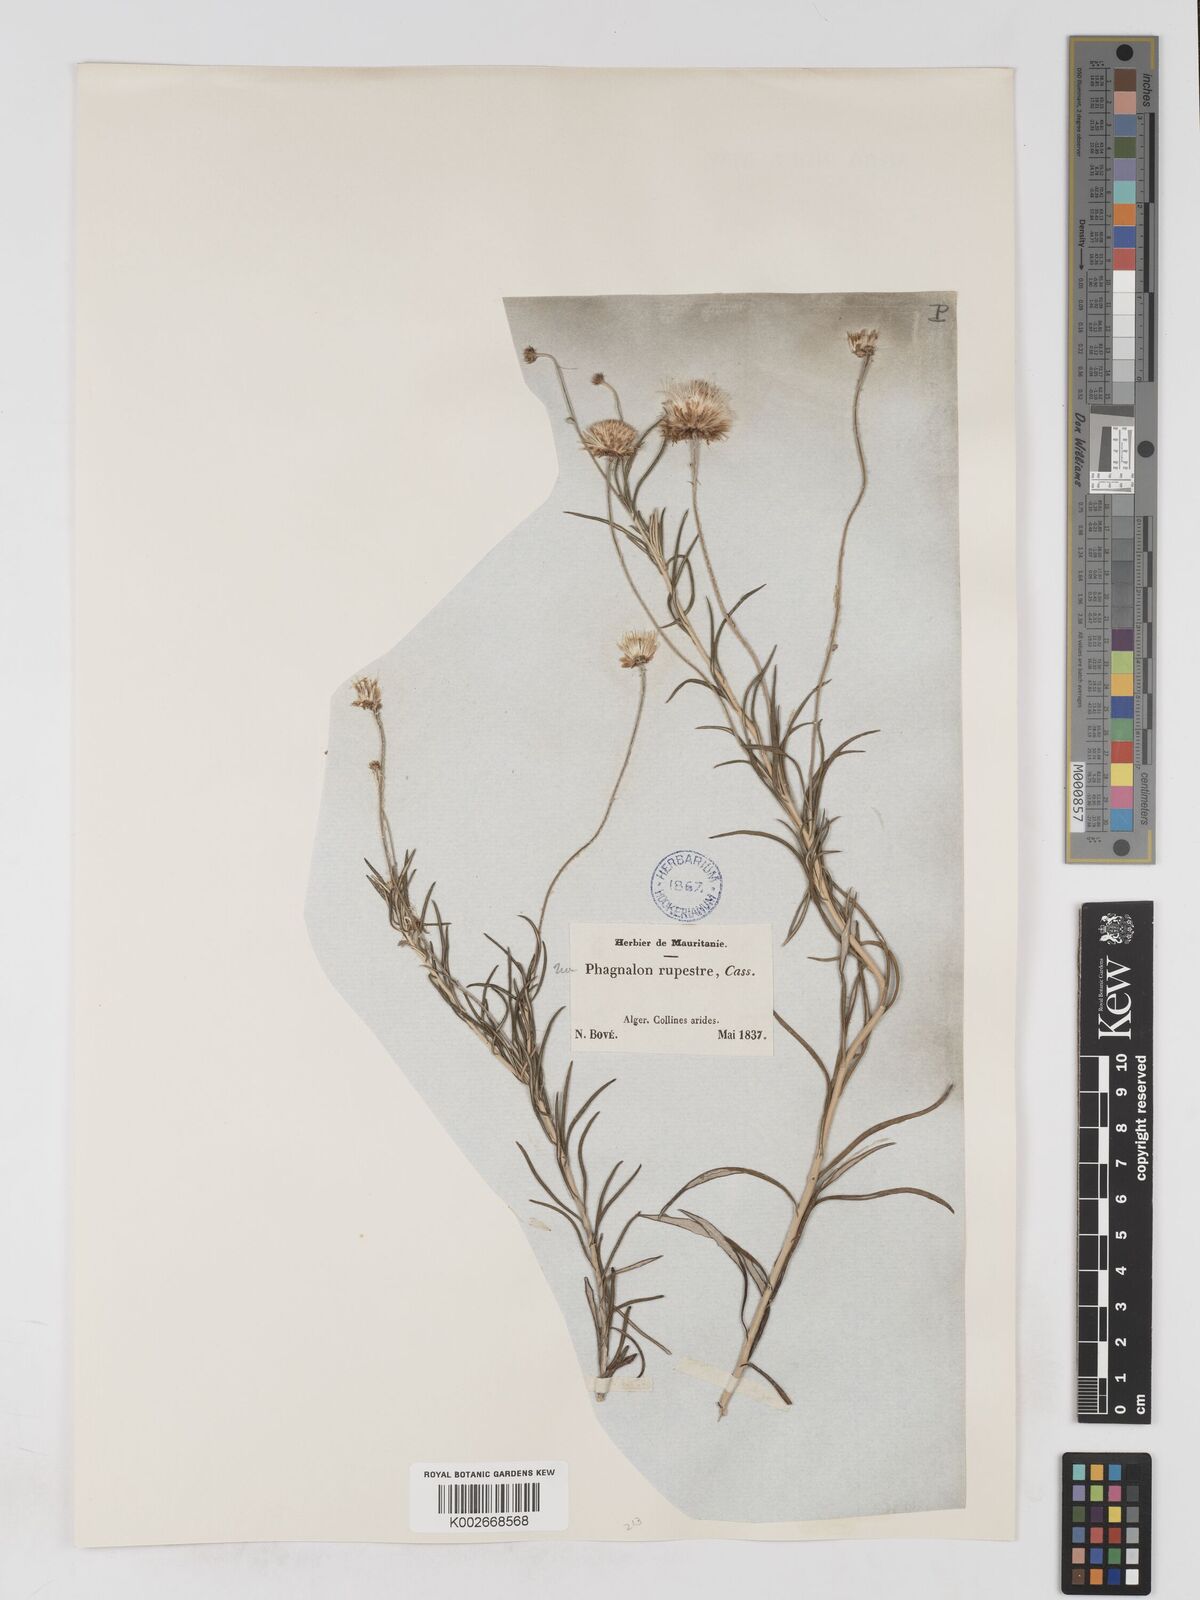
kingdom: Plantae
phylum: Tracheophyta
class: Magnoliopsida
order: Asterales
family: Asteraceae
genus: Phagnalon
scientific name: Phagnalon rupestre
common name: Rock phagnalon
